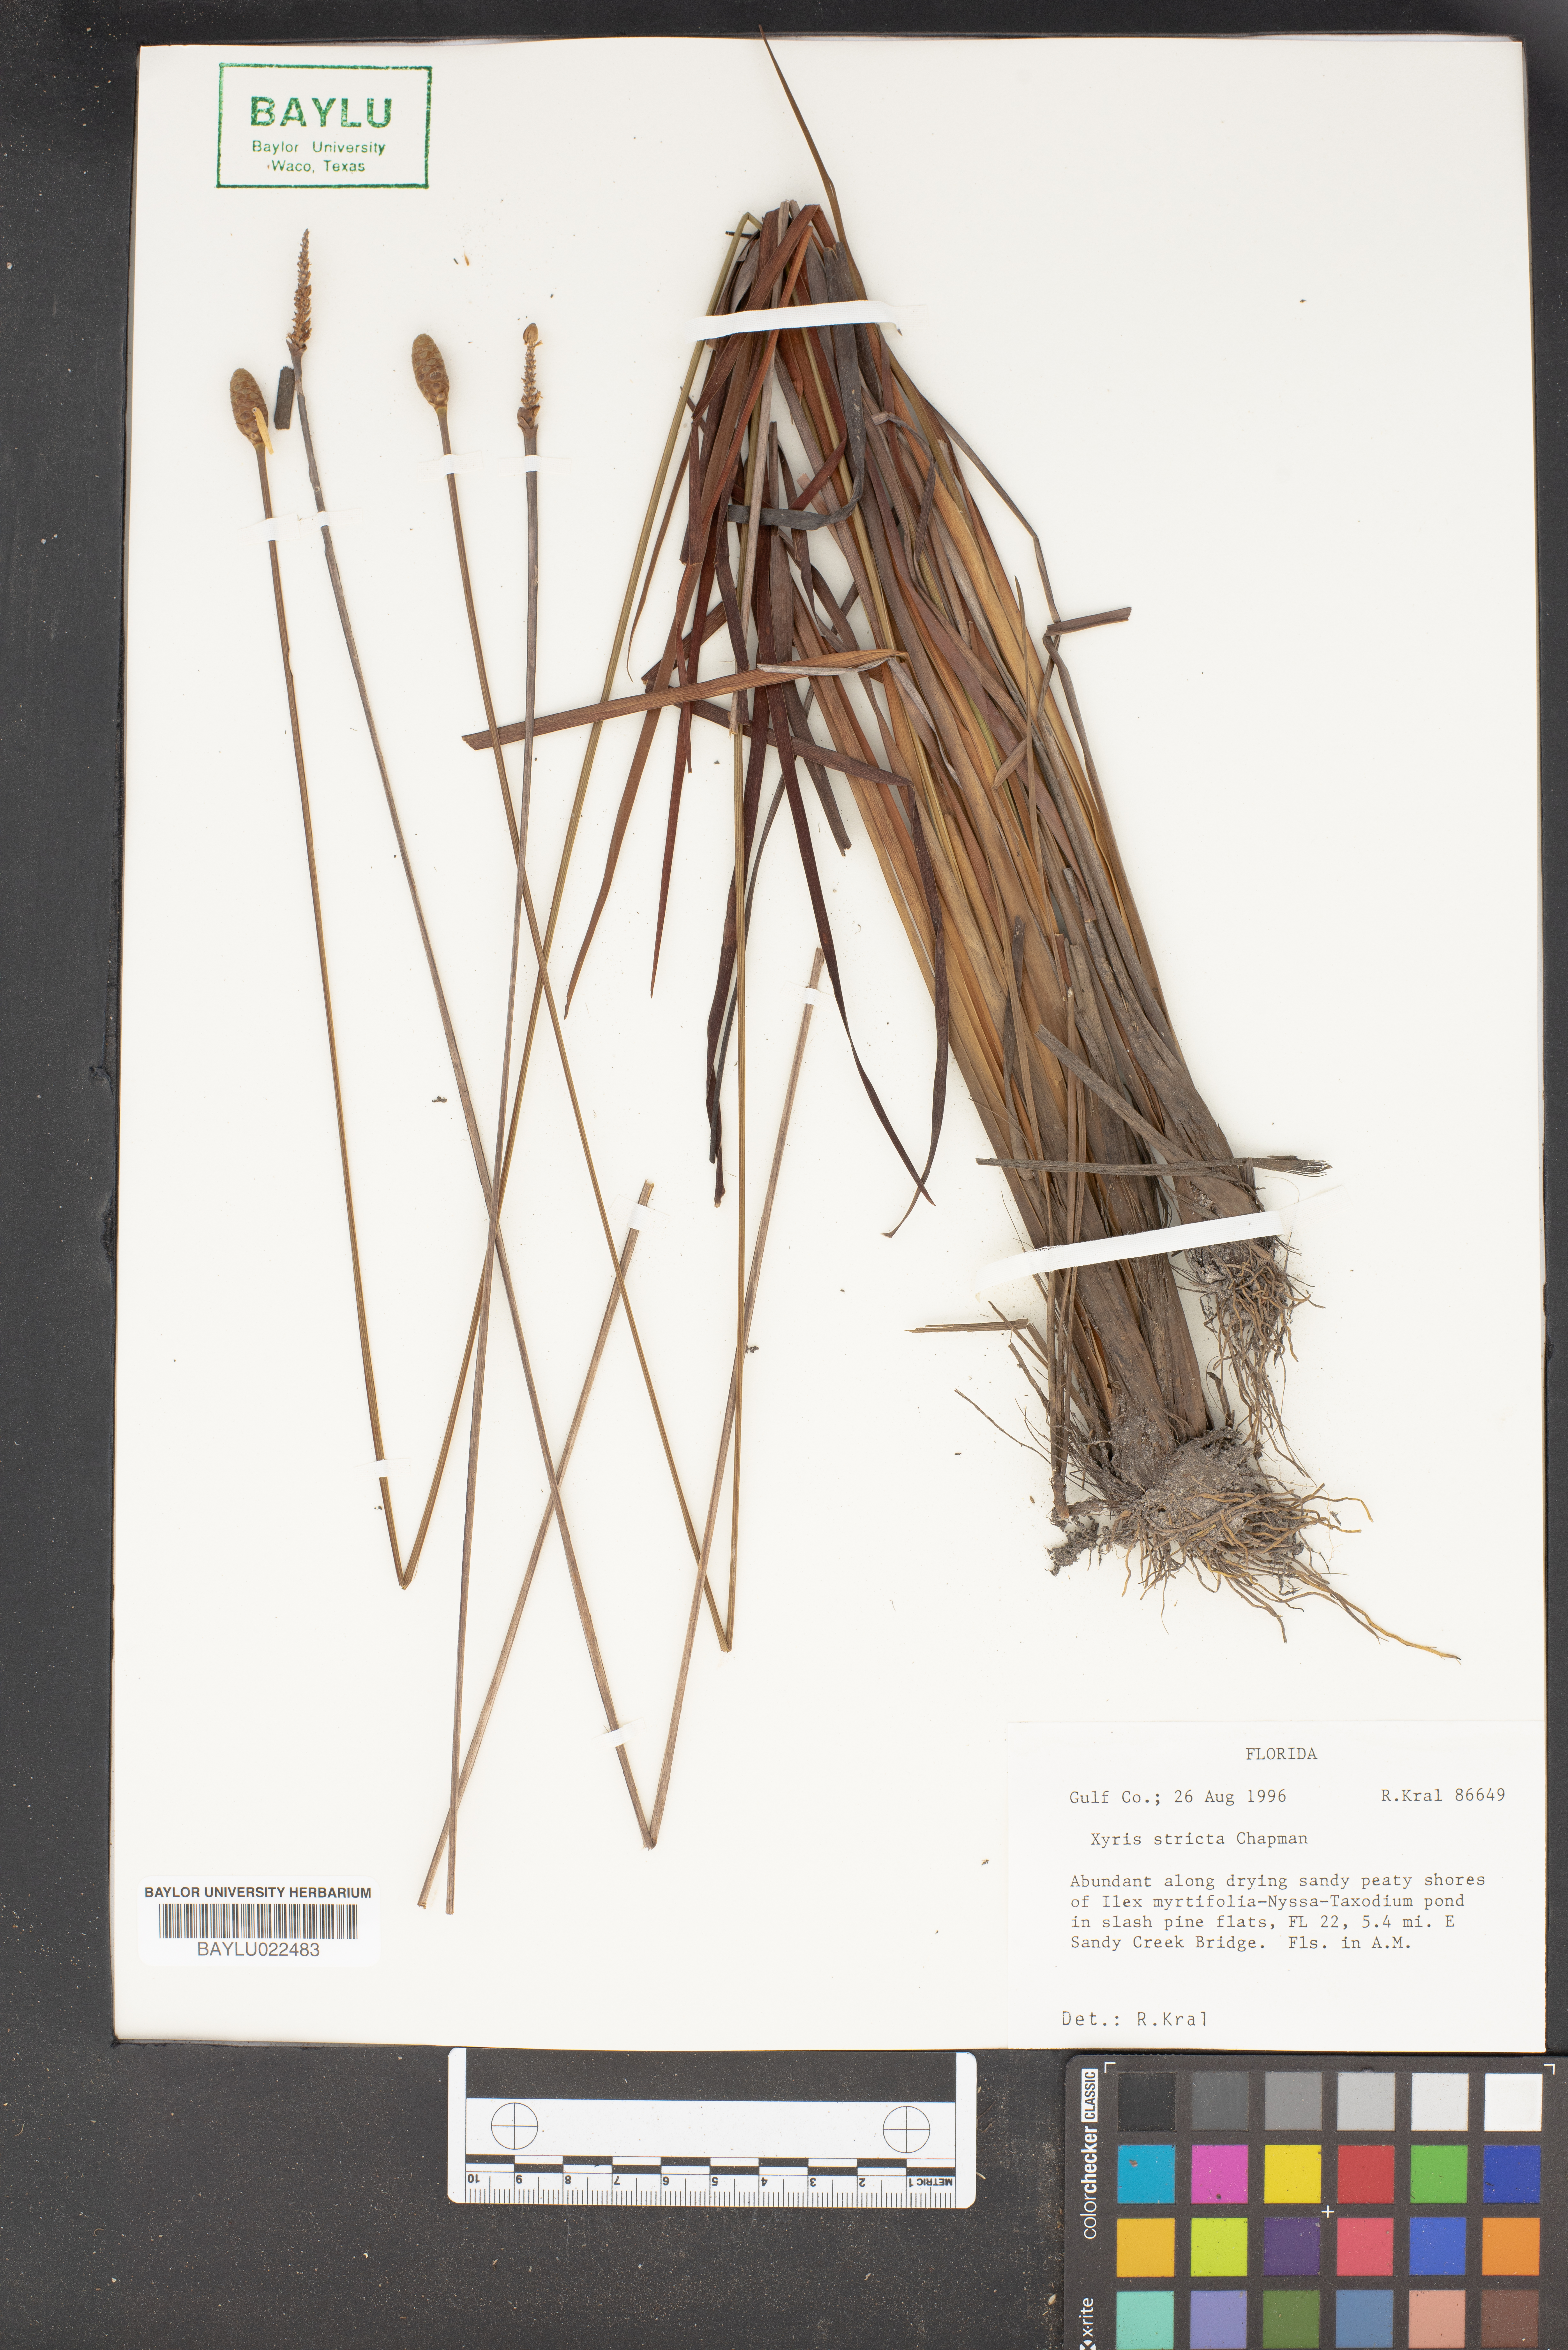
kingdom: Plantae
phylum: Tracheophyta
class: Liliopsida
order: Poales
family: Xyridaceae
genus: Xyris
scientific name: Xyris stricta
